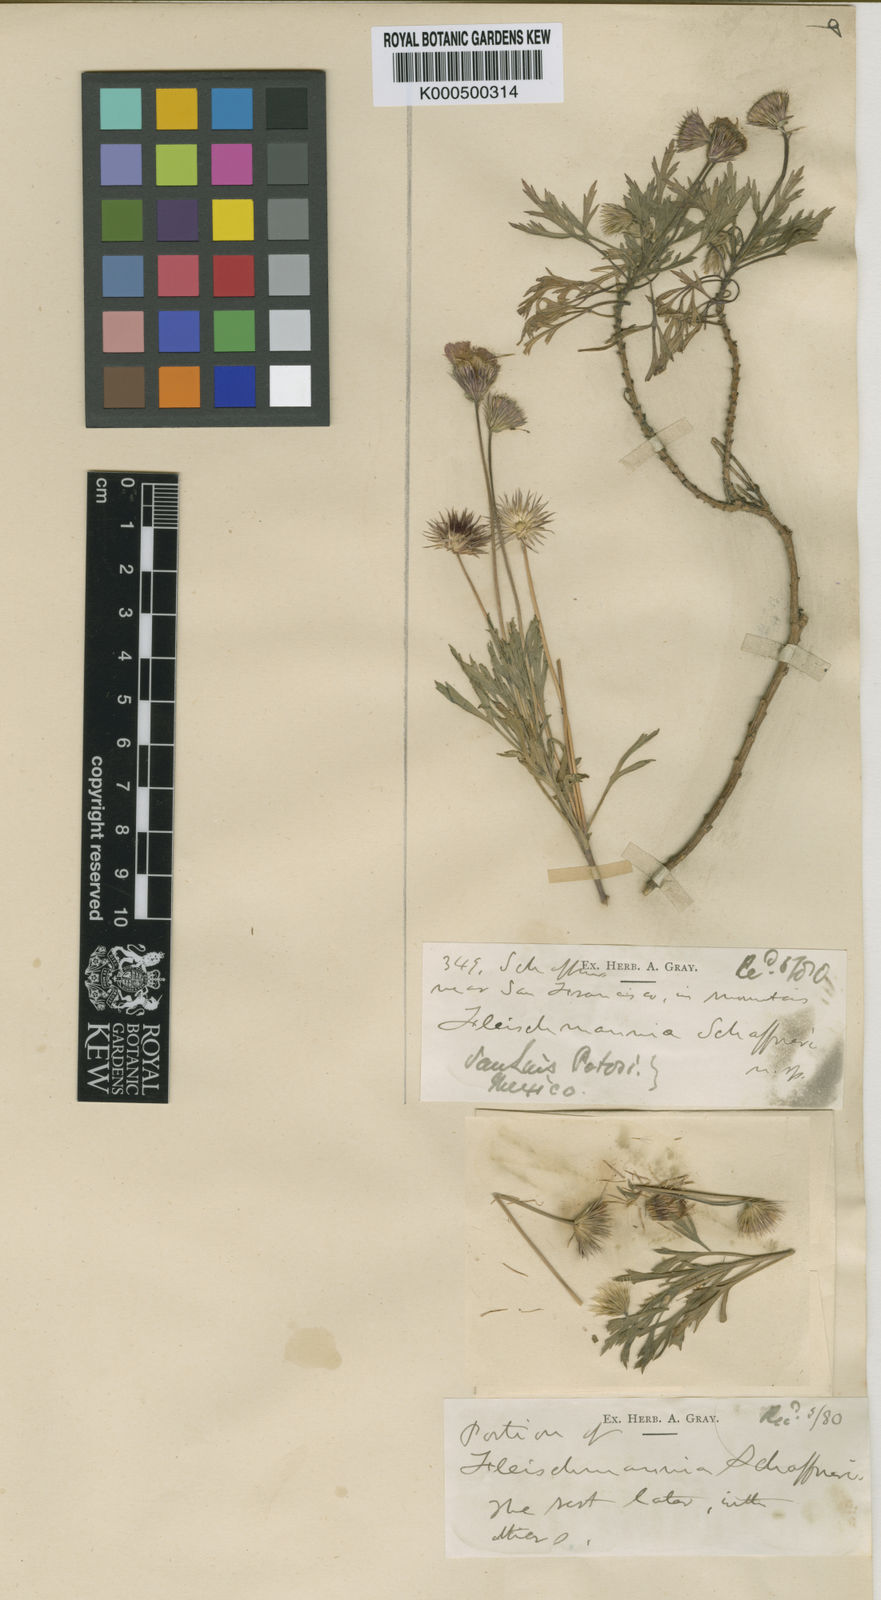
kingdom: Plantae
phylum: Tracheophyta
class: Magnoliopsida
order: Asterales
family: Asteraceae
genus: Hofmeisteria
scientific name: Hofmeisteria schaffneri
